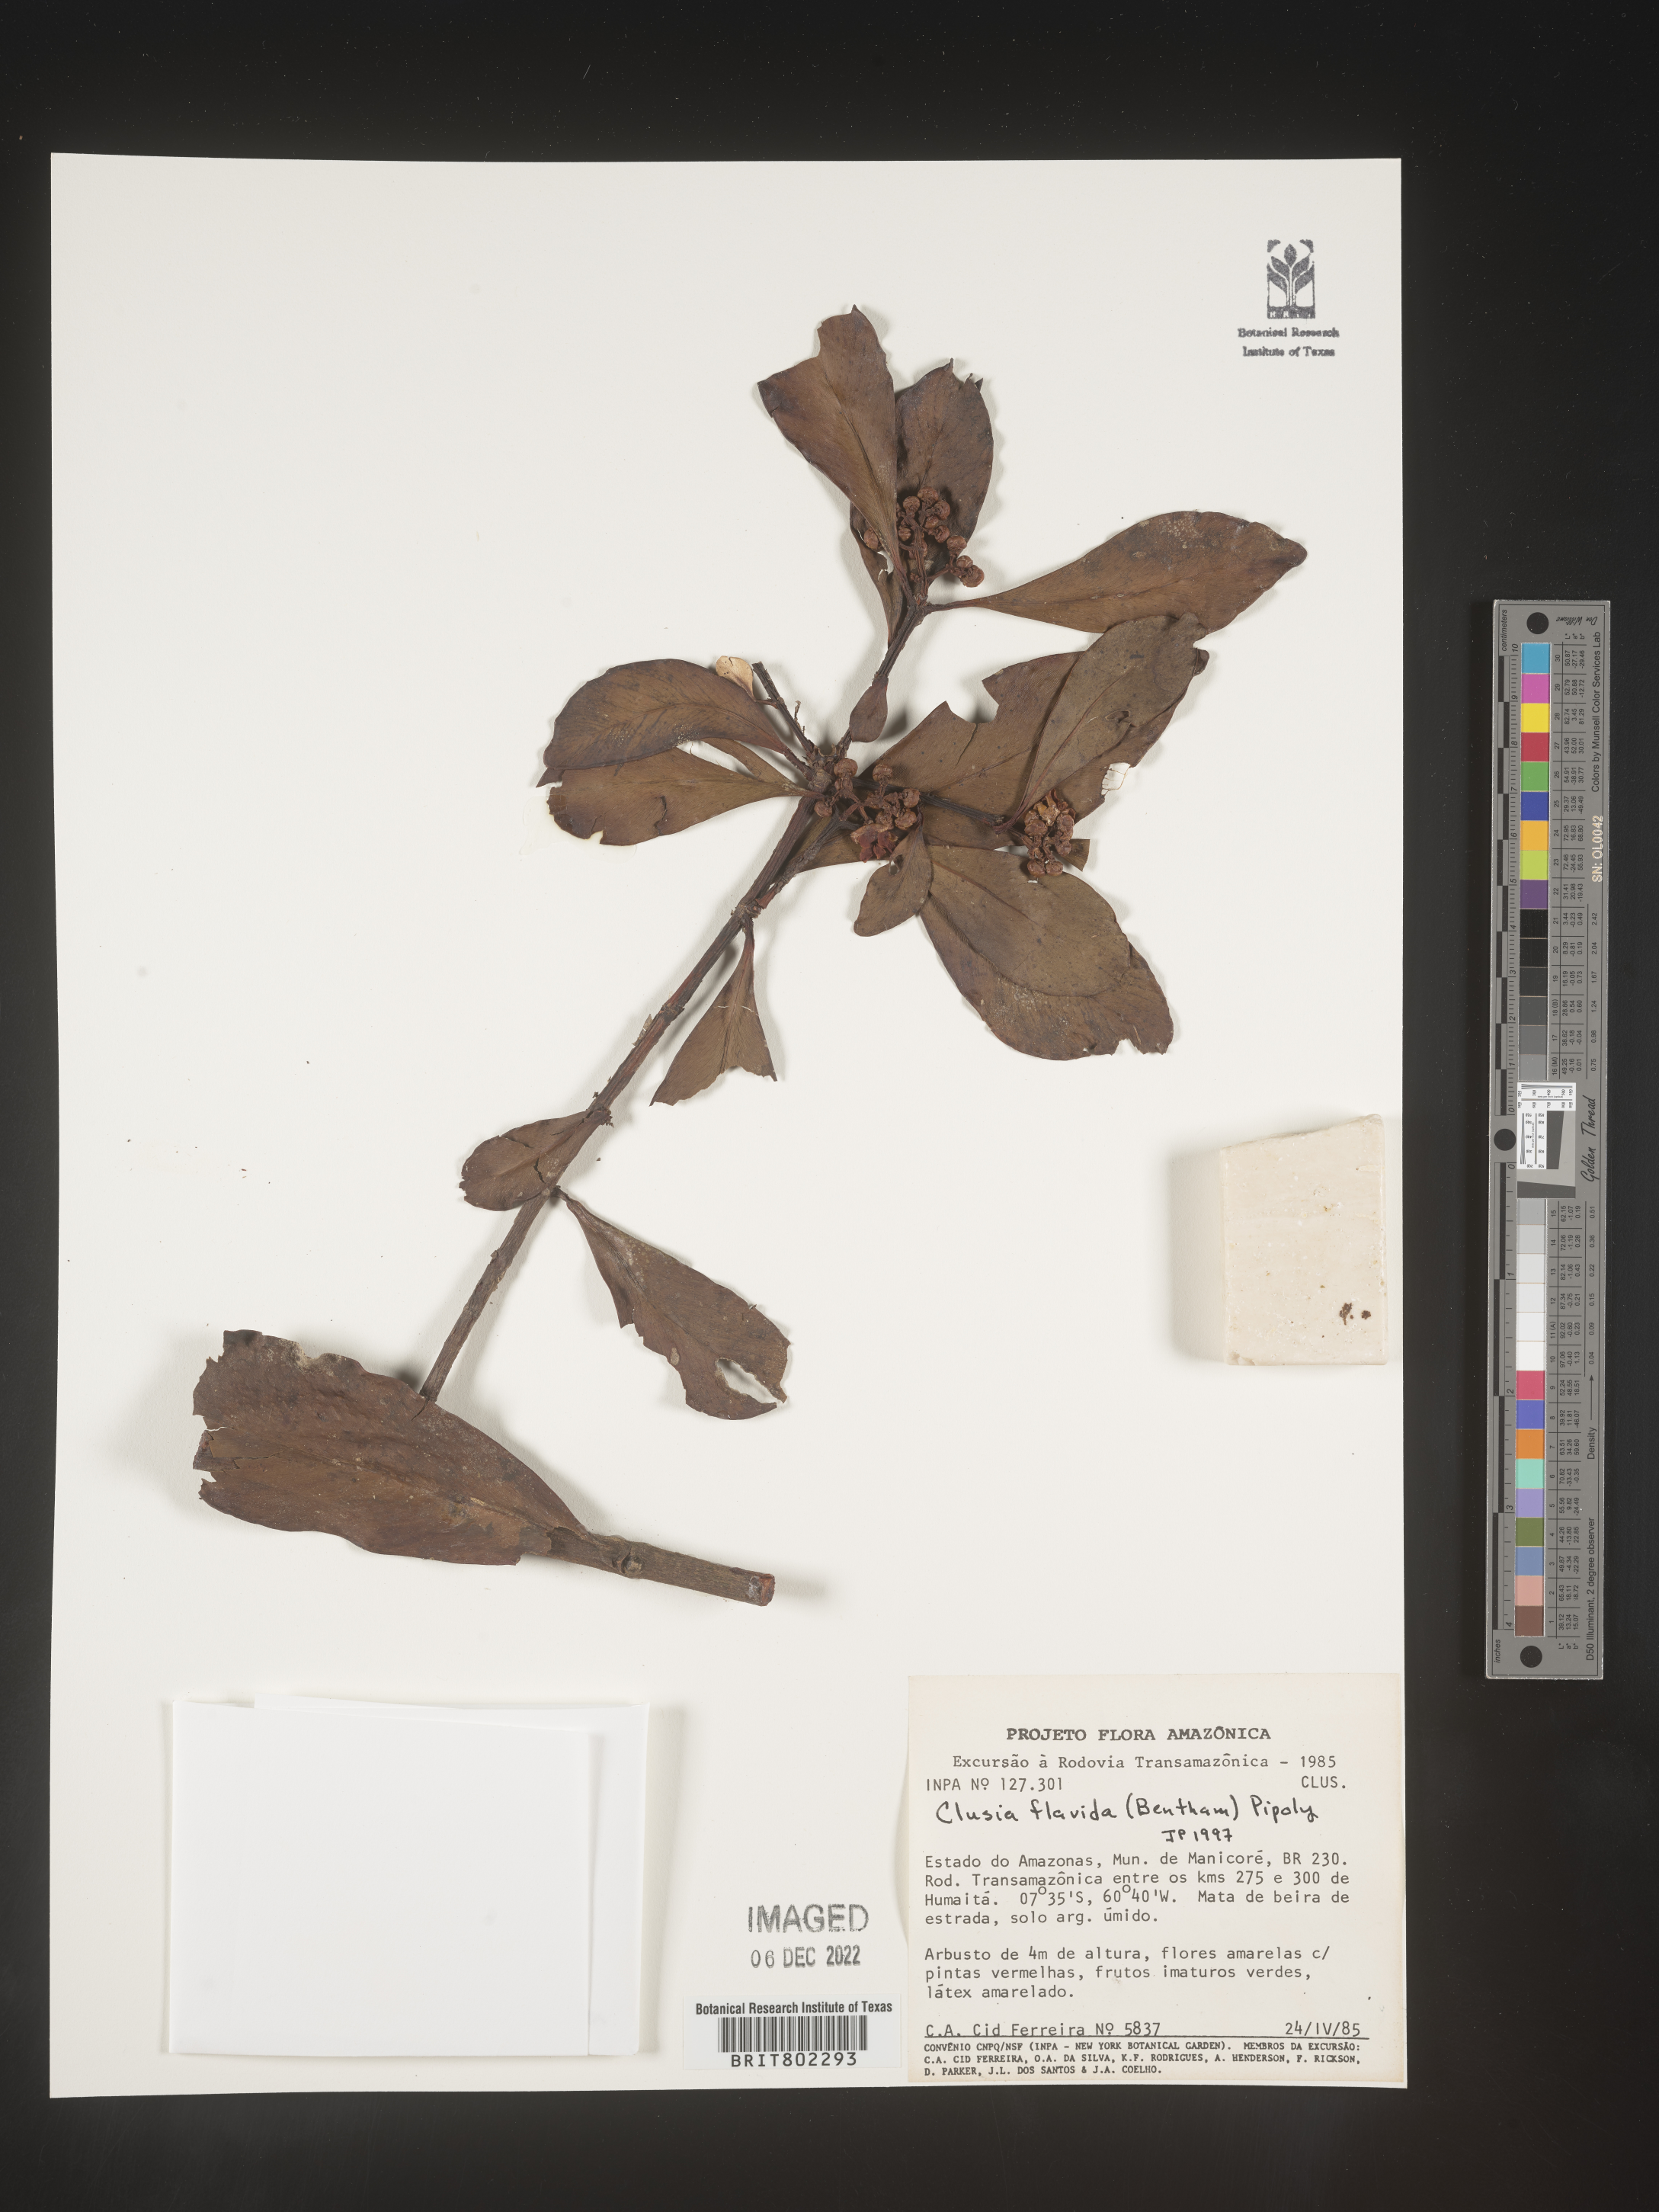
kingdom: Plantae
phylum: Tracheophyta
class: Magnoliopsida
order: Malpighiales
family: Clusiaceae
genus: Clusia
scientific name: Clusia flavida
